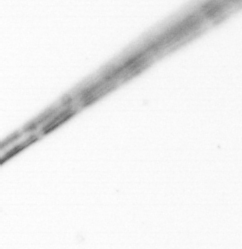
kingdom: Chromista
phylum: Ochrophyta
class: Bacillariophyceae
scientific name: Bacillariophyceae
